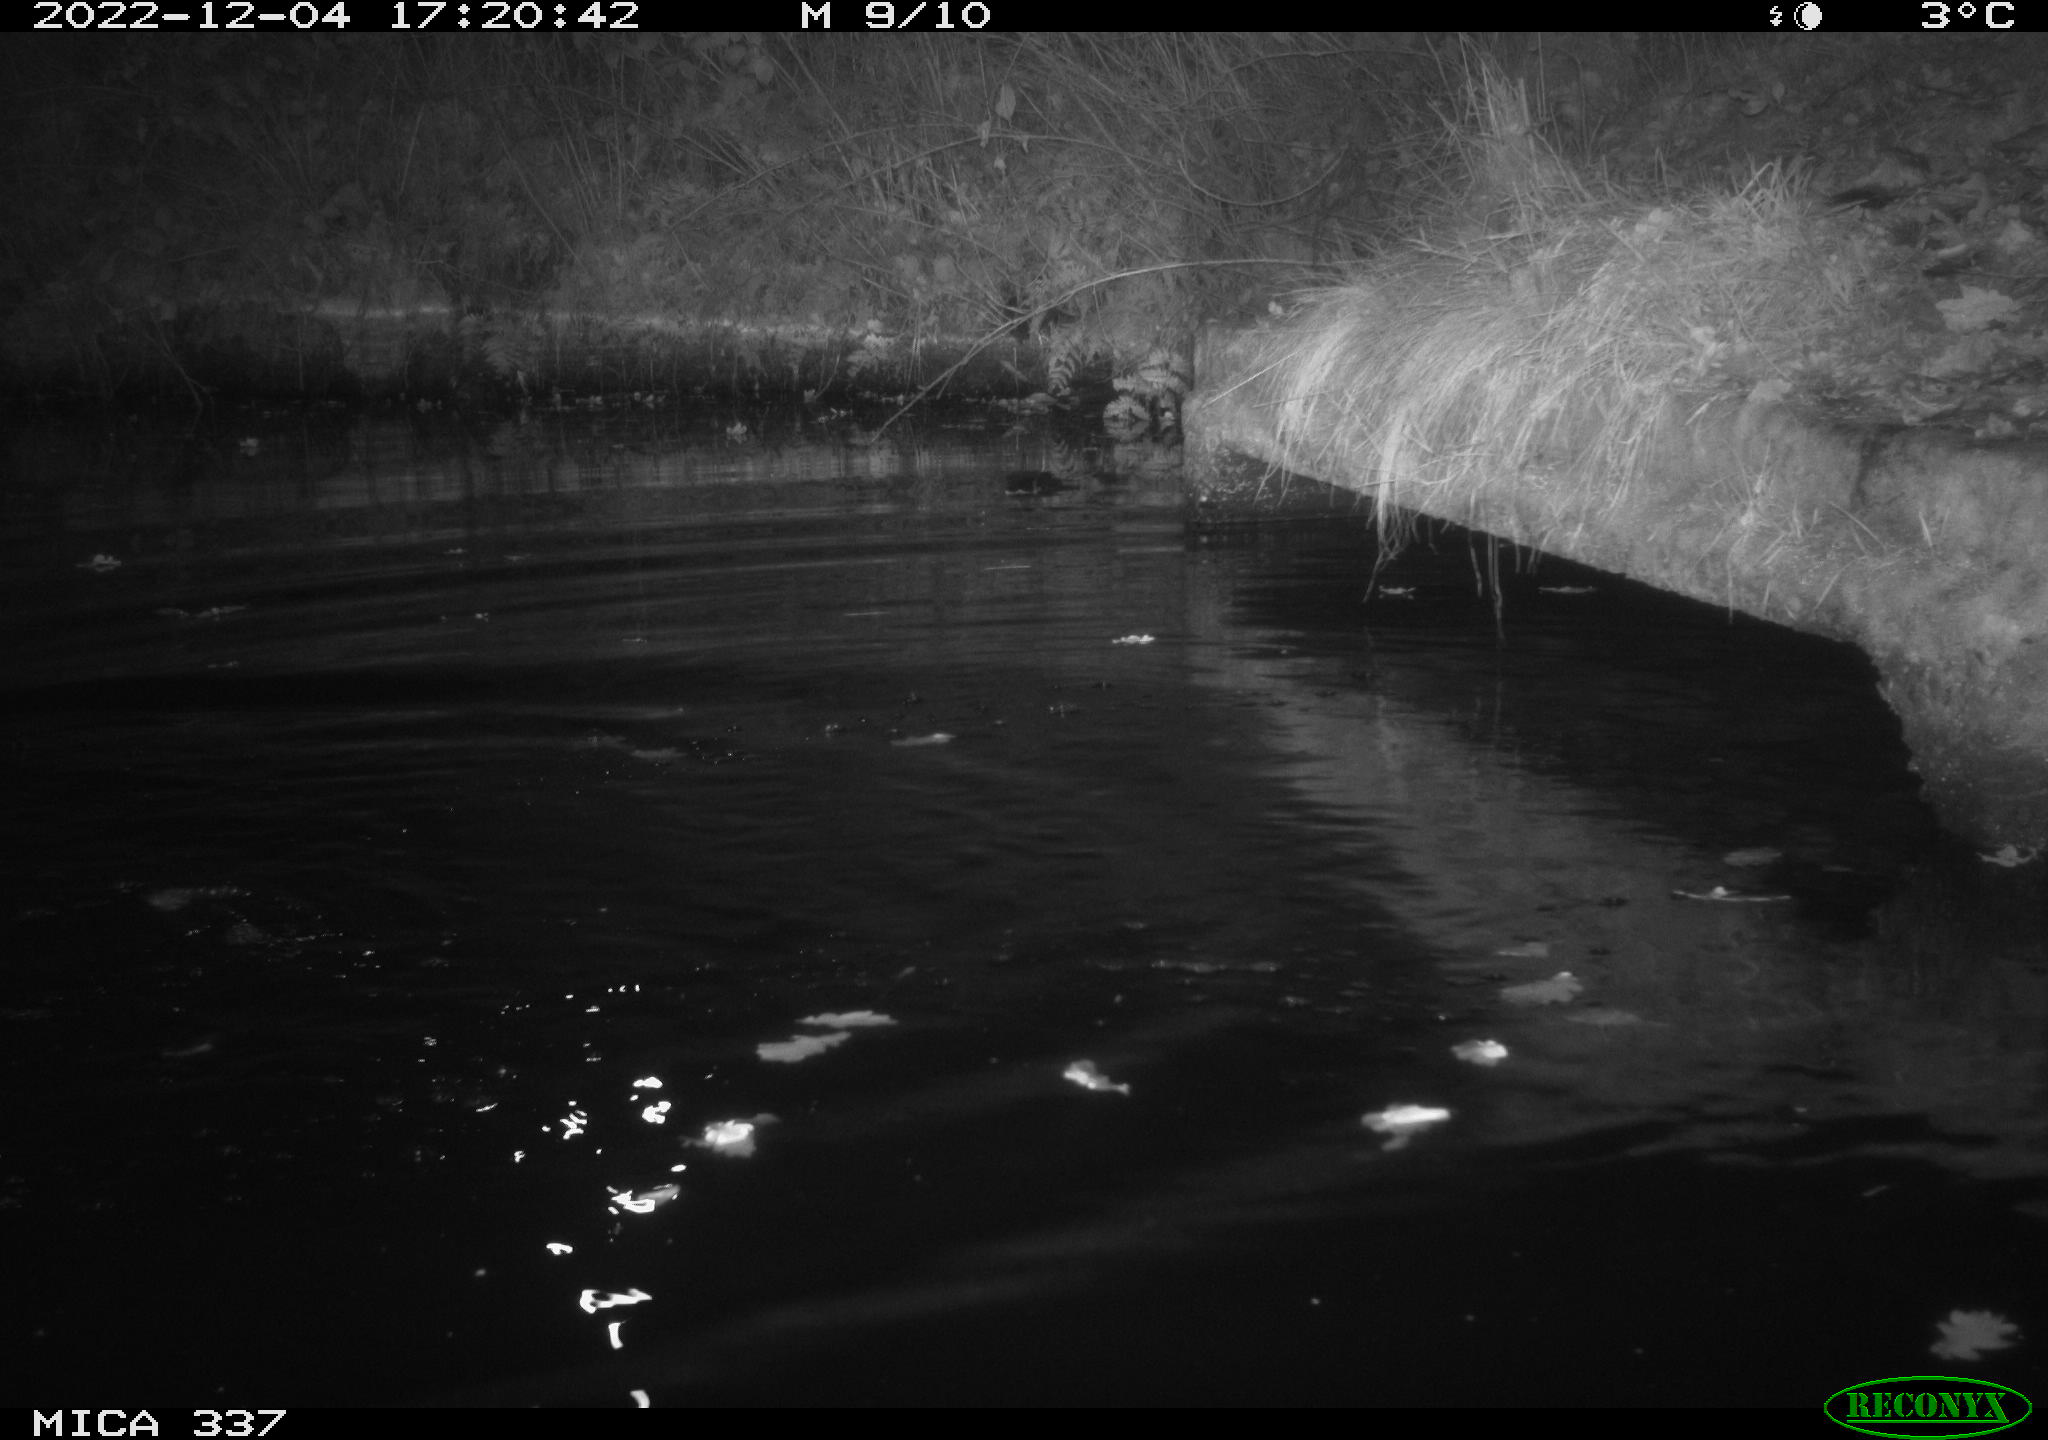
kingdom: Animalia
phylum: Chordata
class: Aves
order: Anseriformes
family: Anatidae
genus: Anas
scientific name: Anas
